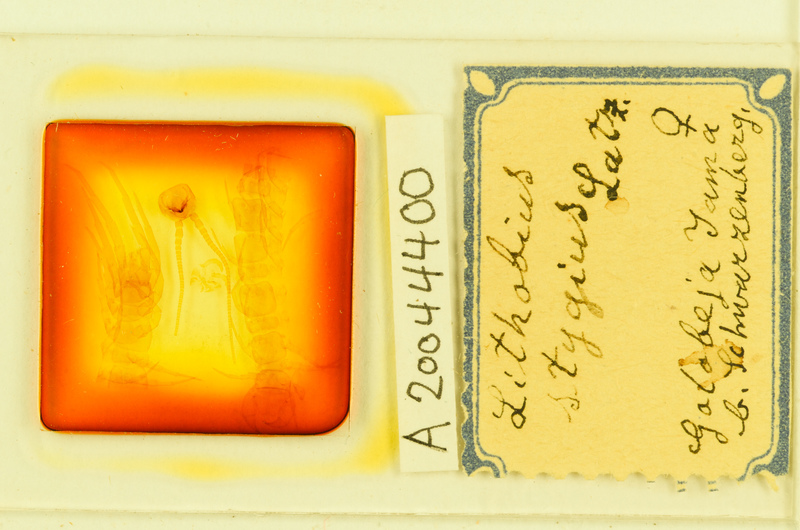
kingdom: Animalia
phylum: Arthropoda
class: Chilopoda
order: Lithobiomorpha
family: Lithobiidae
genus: Lithobius
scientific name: Lithobius stygius
